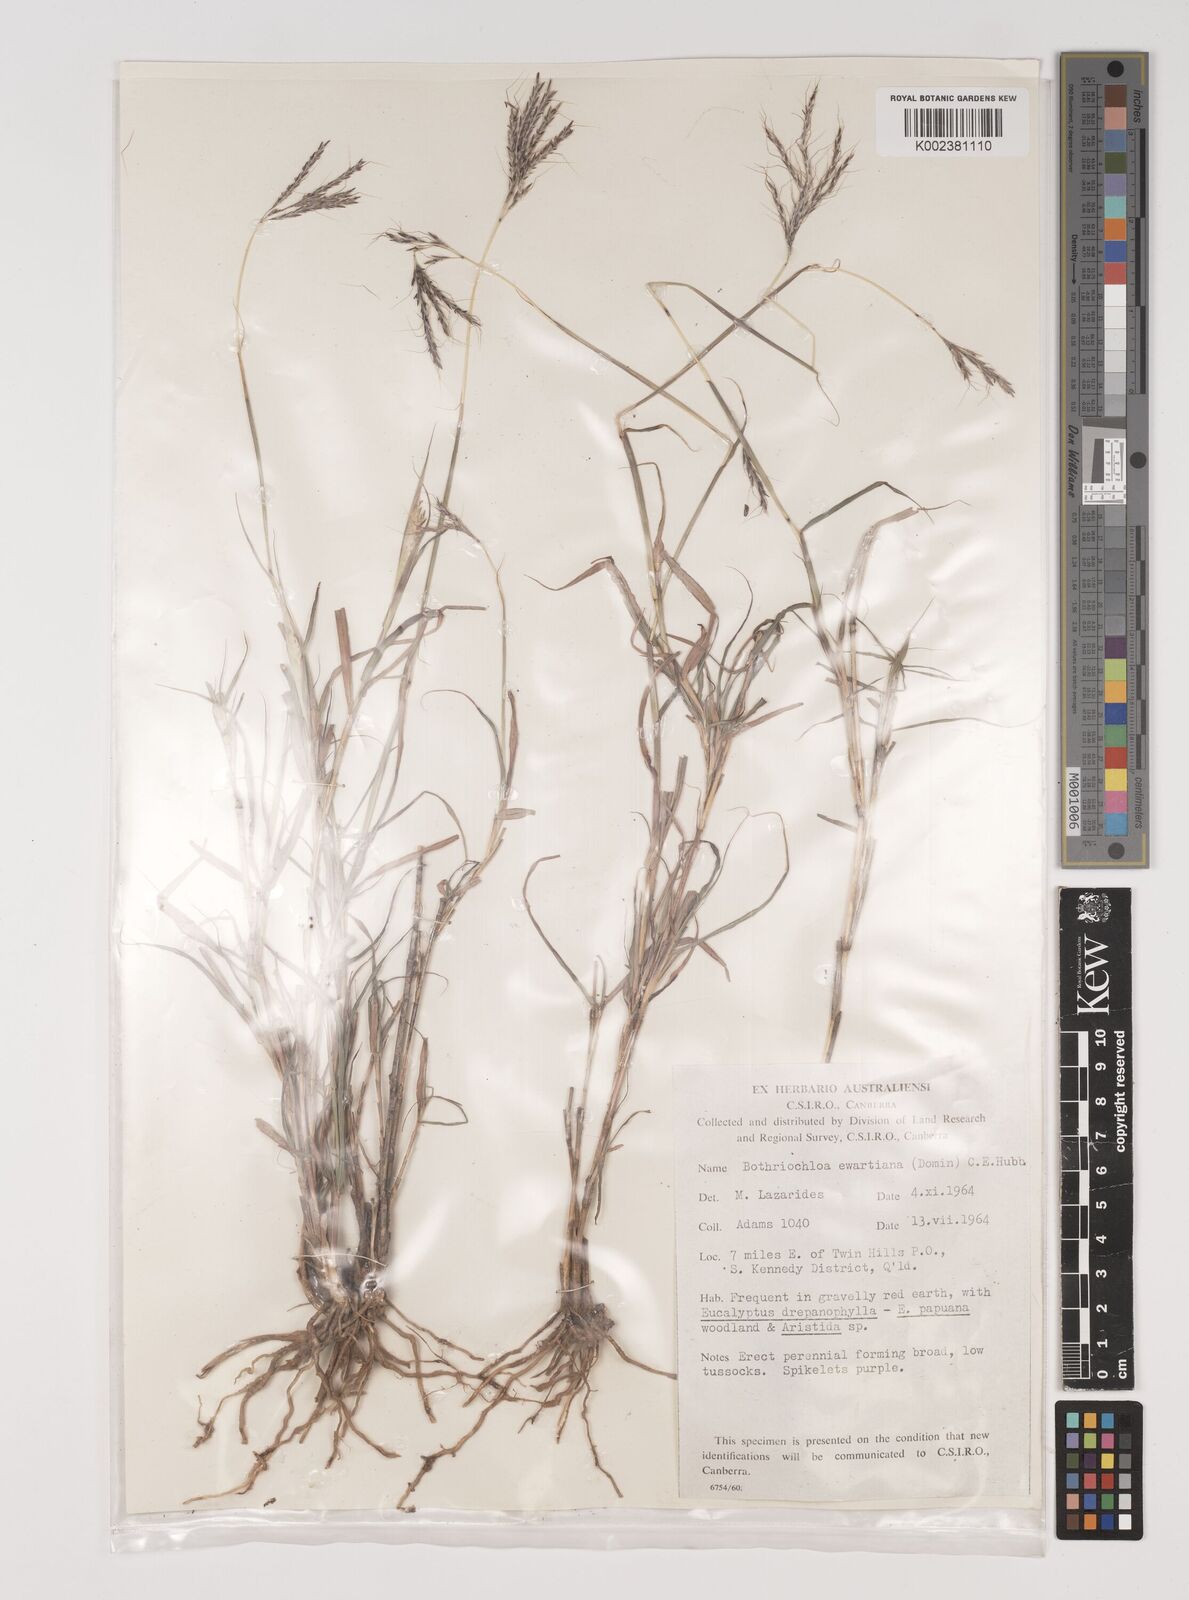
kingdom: Plantae
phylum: Tracheophyta
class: Liliopsida
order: Poales
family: Poaceae
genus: Bothriochloa
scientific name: Bothriochloa ewartiana
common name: Desert-bluegrass
